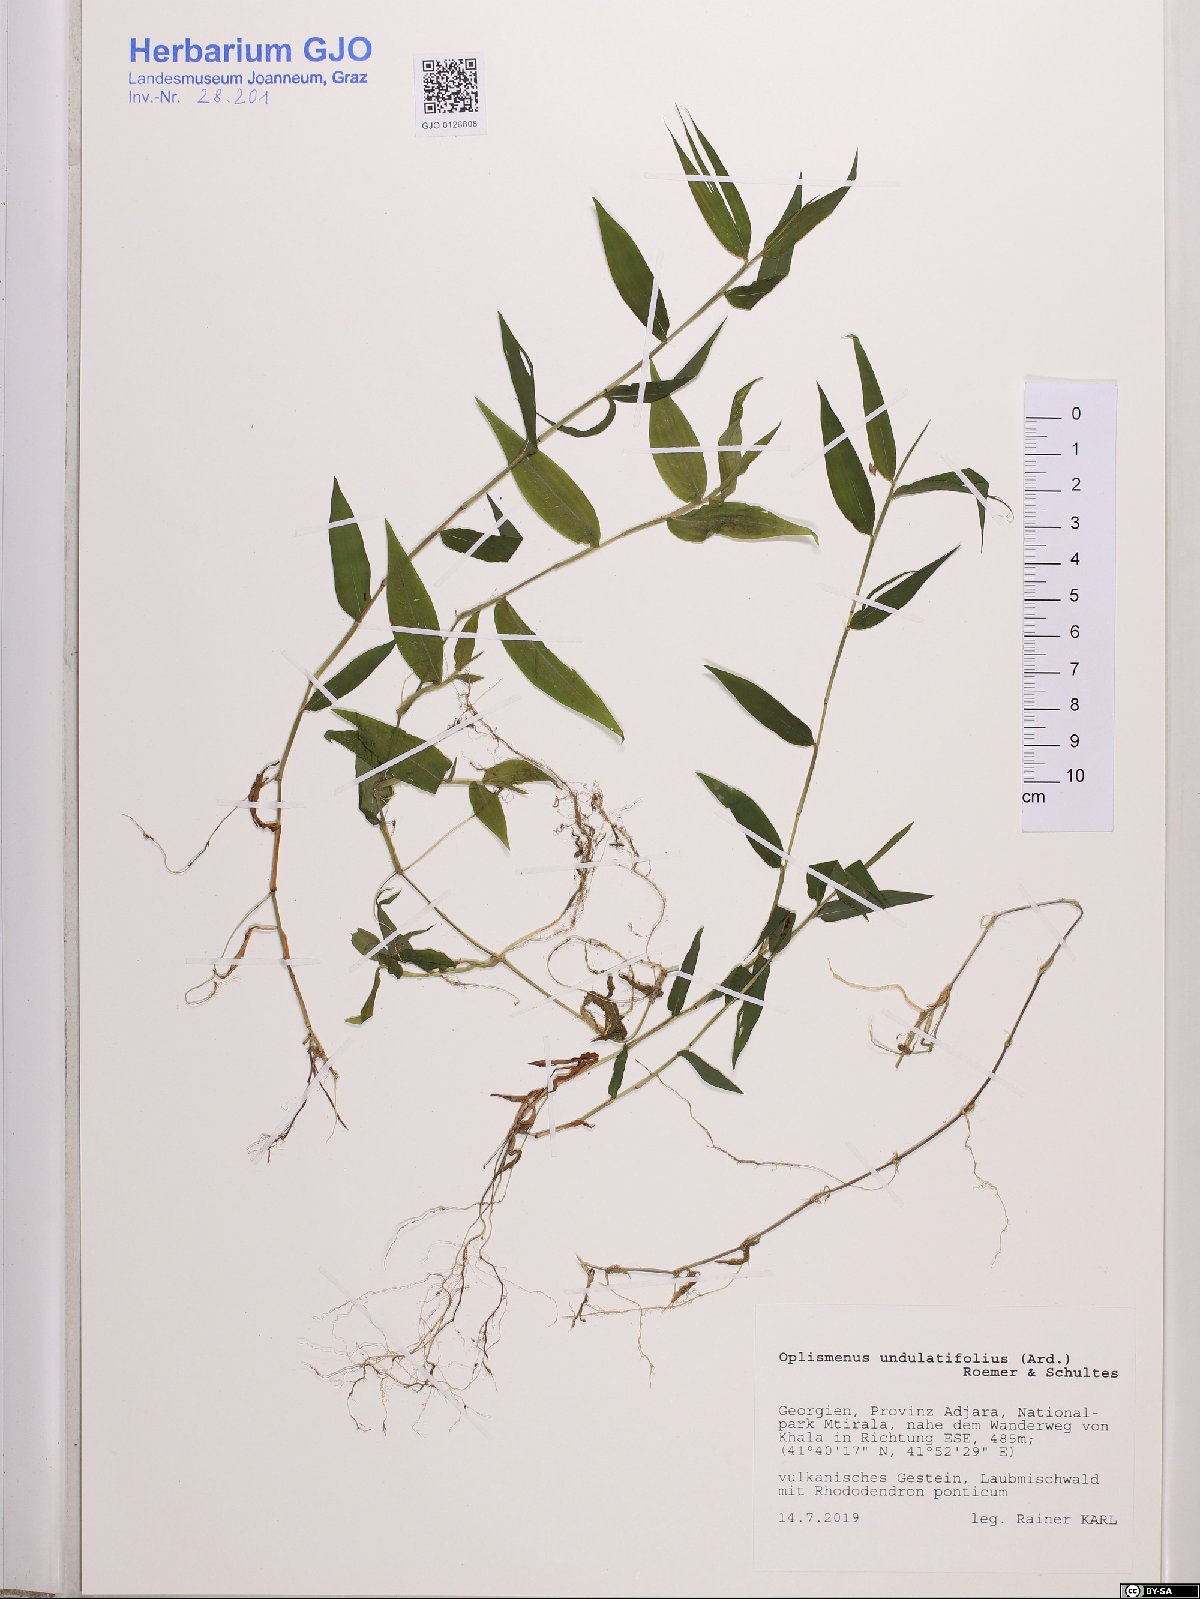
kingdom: Plantae
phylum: Tracheophyta
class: Liliopsida
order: Poales
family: Poaceae
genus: Oplismenus
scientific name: Oplismenus undulatifolius
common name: Wavyleaf basketgrass
